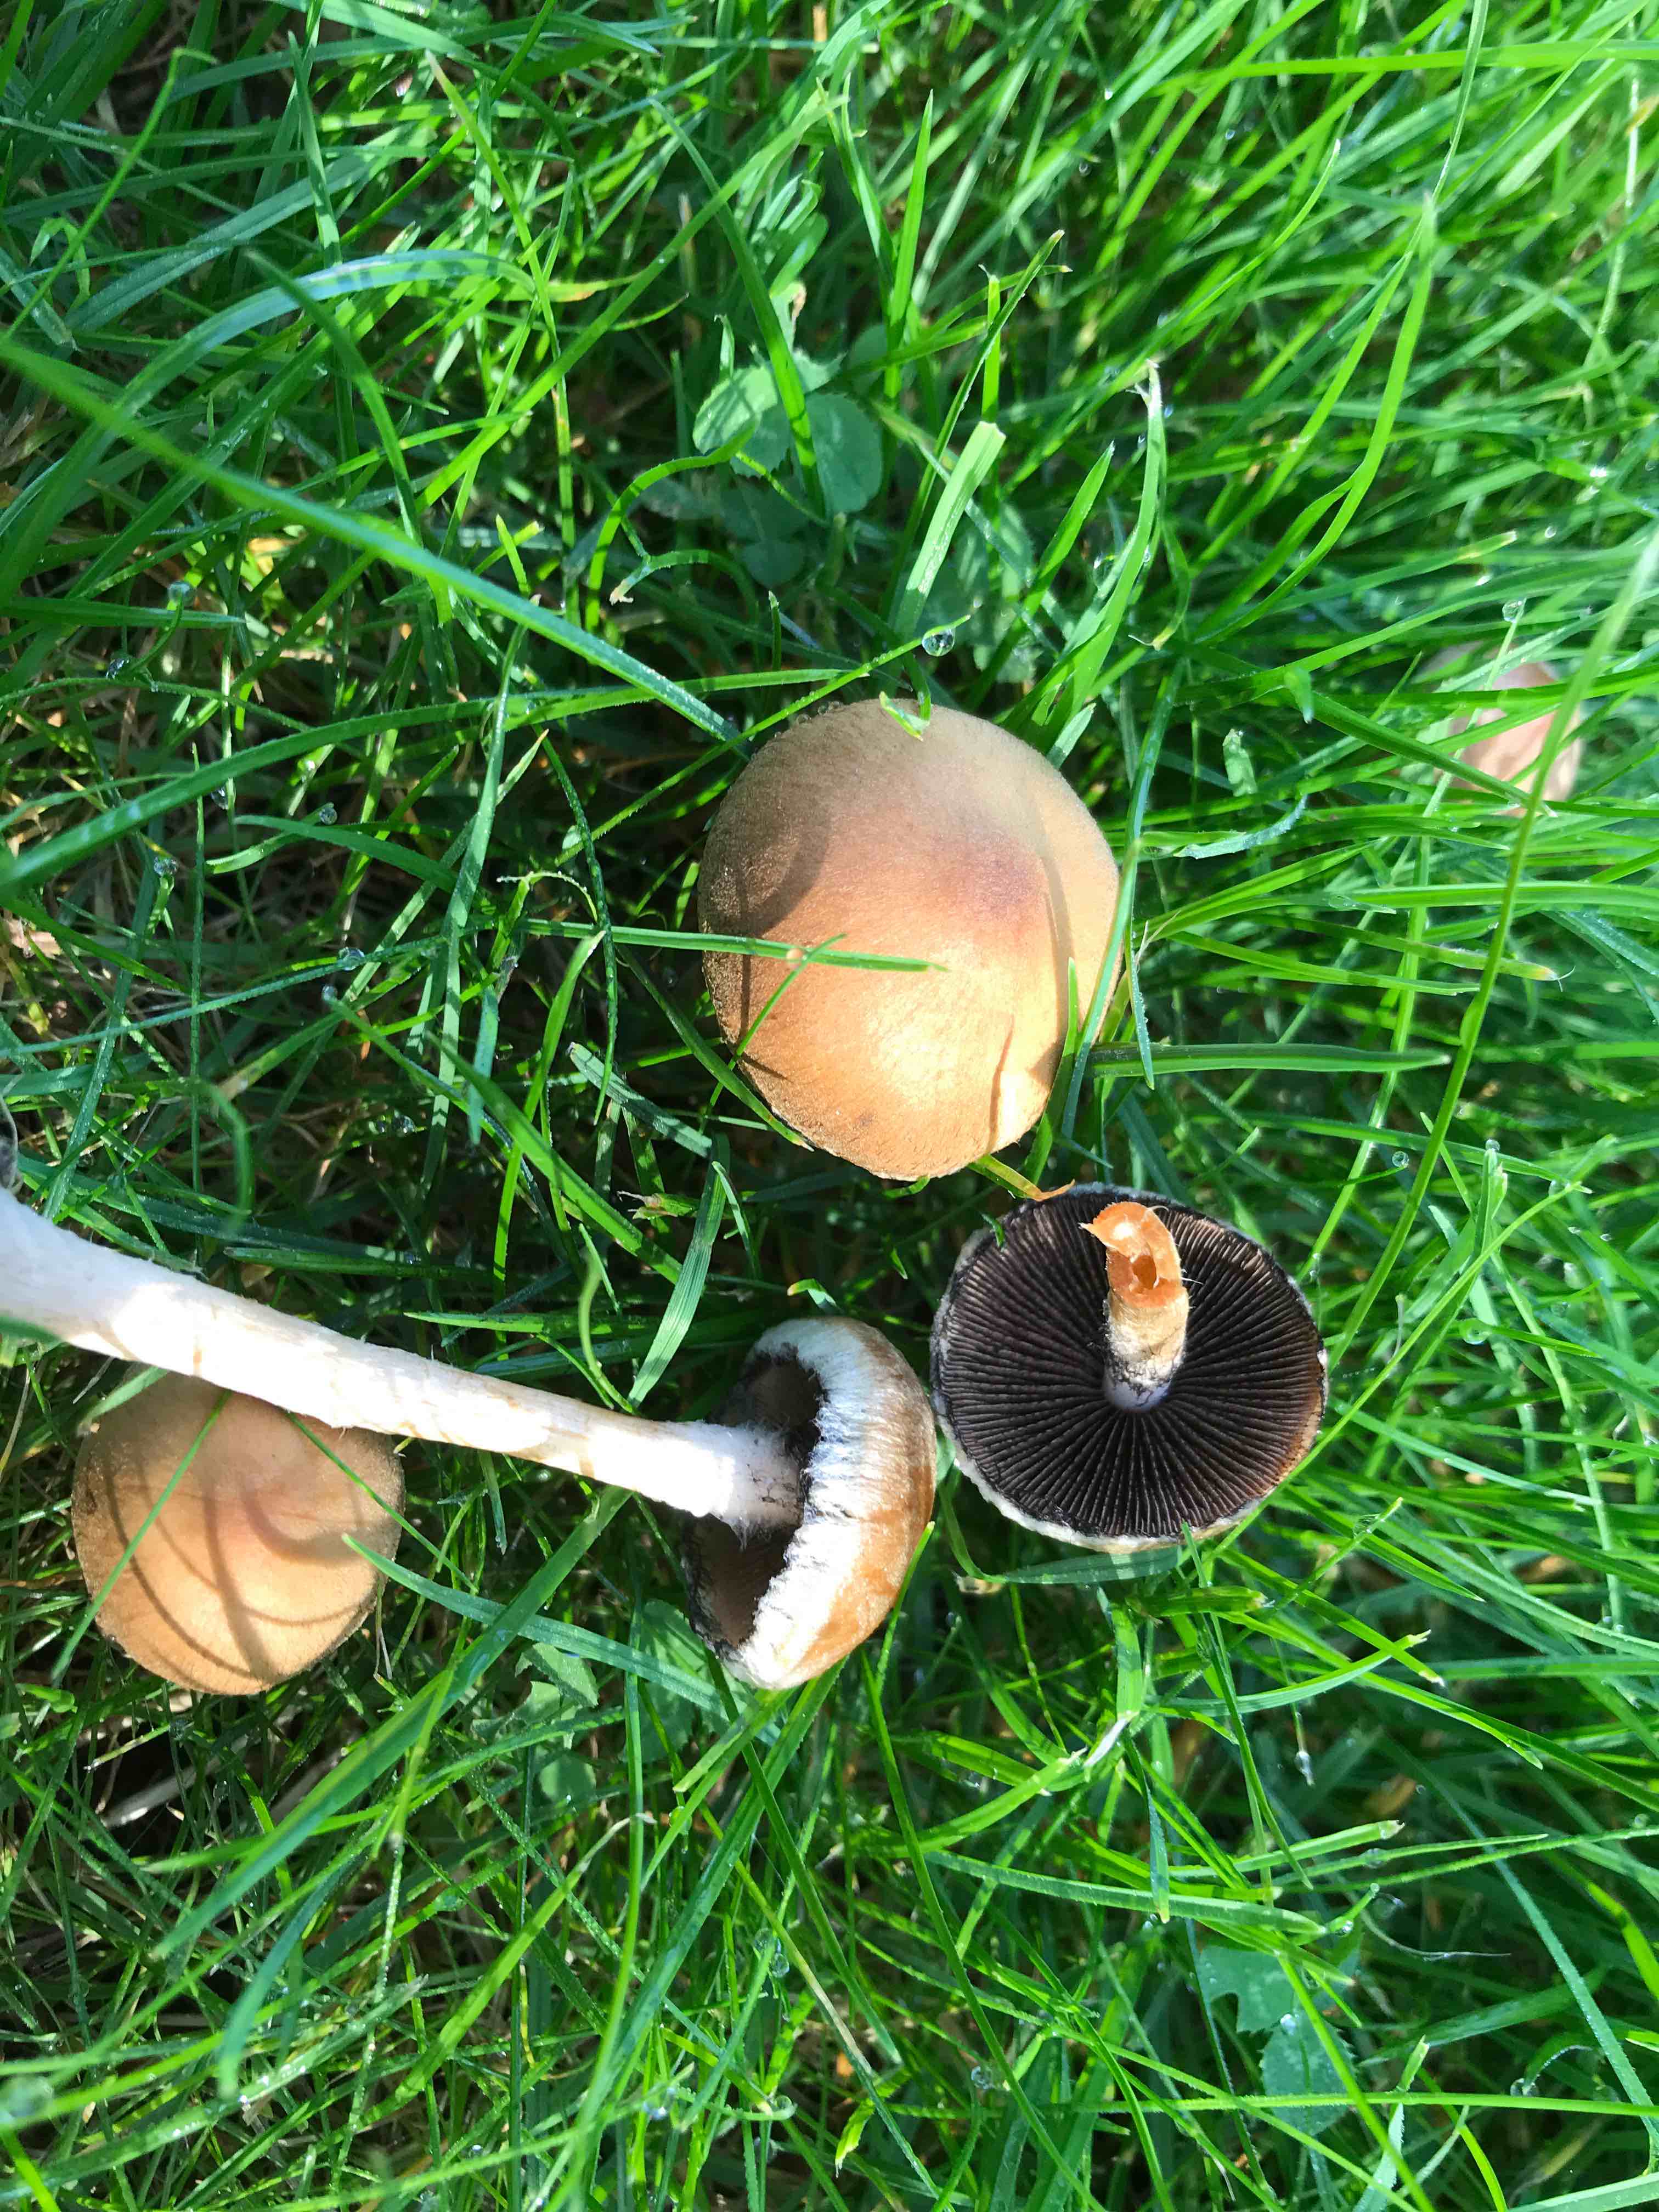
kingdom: Fungi
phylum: Basidiomycota
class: Agaricomycetes
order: Agaricales
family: Psathyrellaceae
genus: Lacrymaria
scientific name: Lacrymaria lacrymabunda
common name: grædende mørkhat
